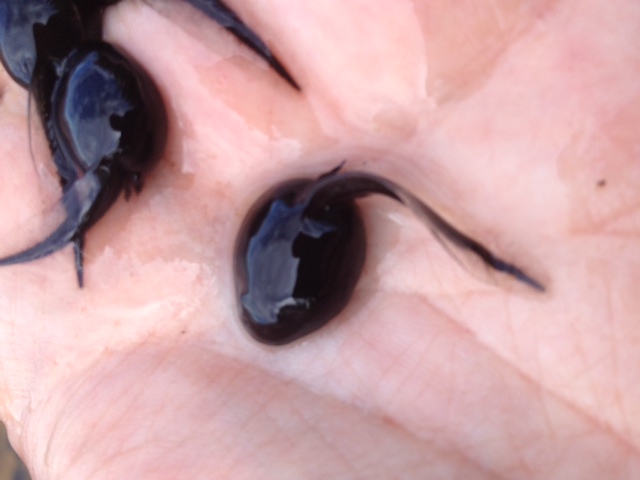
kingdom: Animalia
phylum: Chordata
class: Amphibia
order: Anura
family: Bufonidae
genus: Bufo
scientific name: Bufo bufo
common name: Common toad
